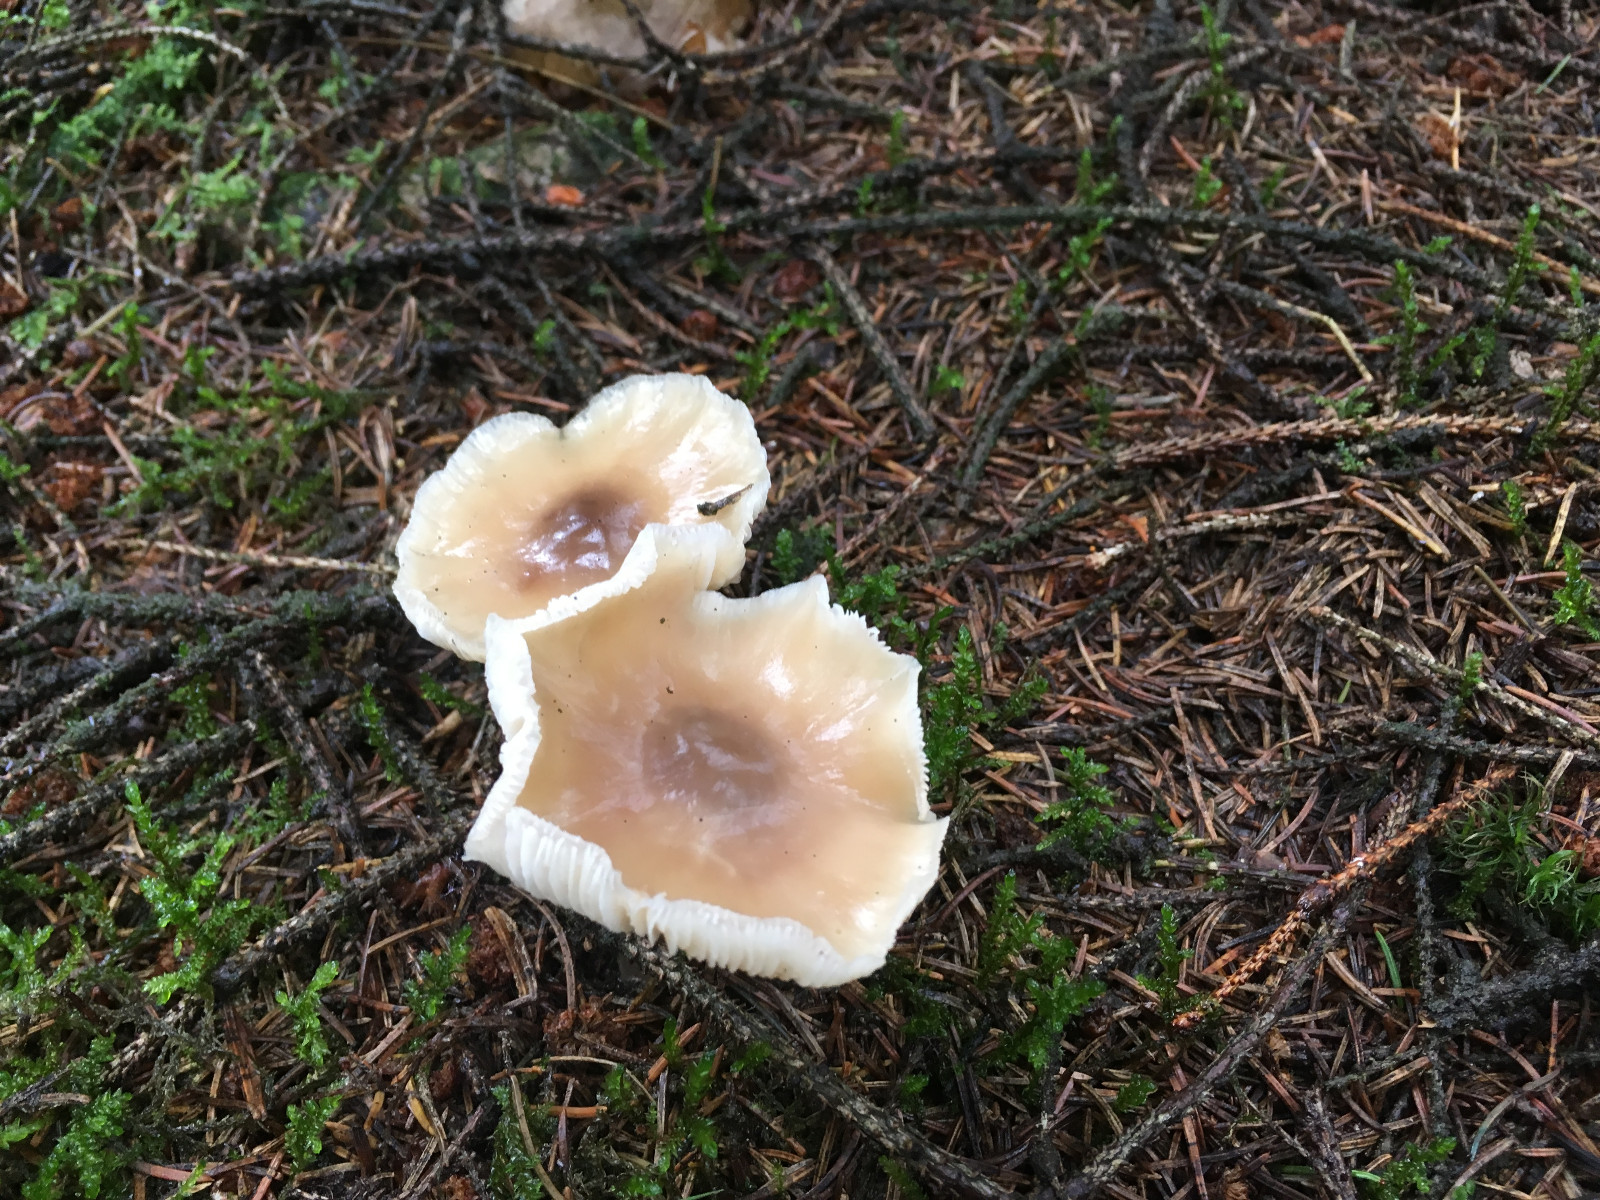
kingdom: Fungi
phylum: Basidiomycota
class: Agaricomycetes
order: Agaricales
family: Omphalotaceae
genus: Rhodocollybia
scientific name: Rhodocollybia asema
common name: horngrå fladhat
